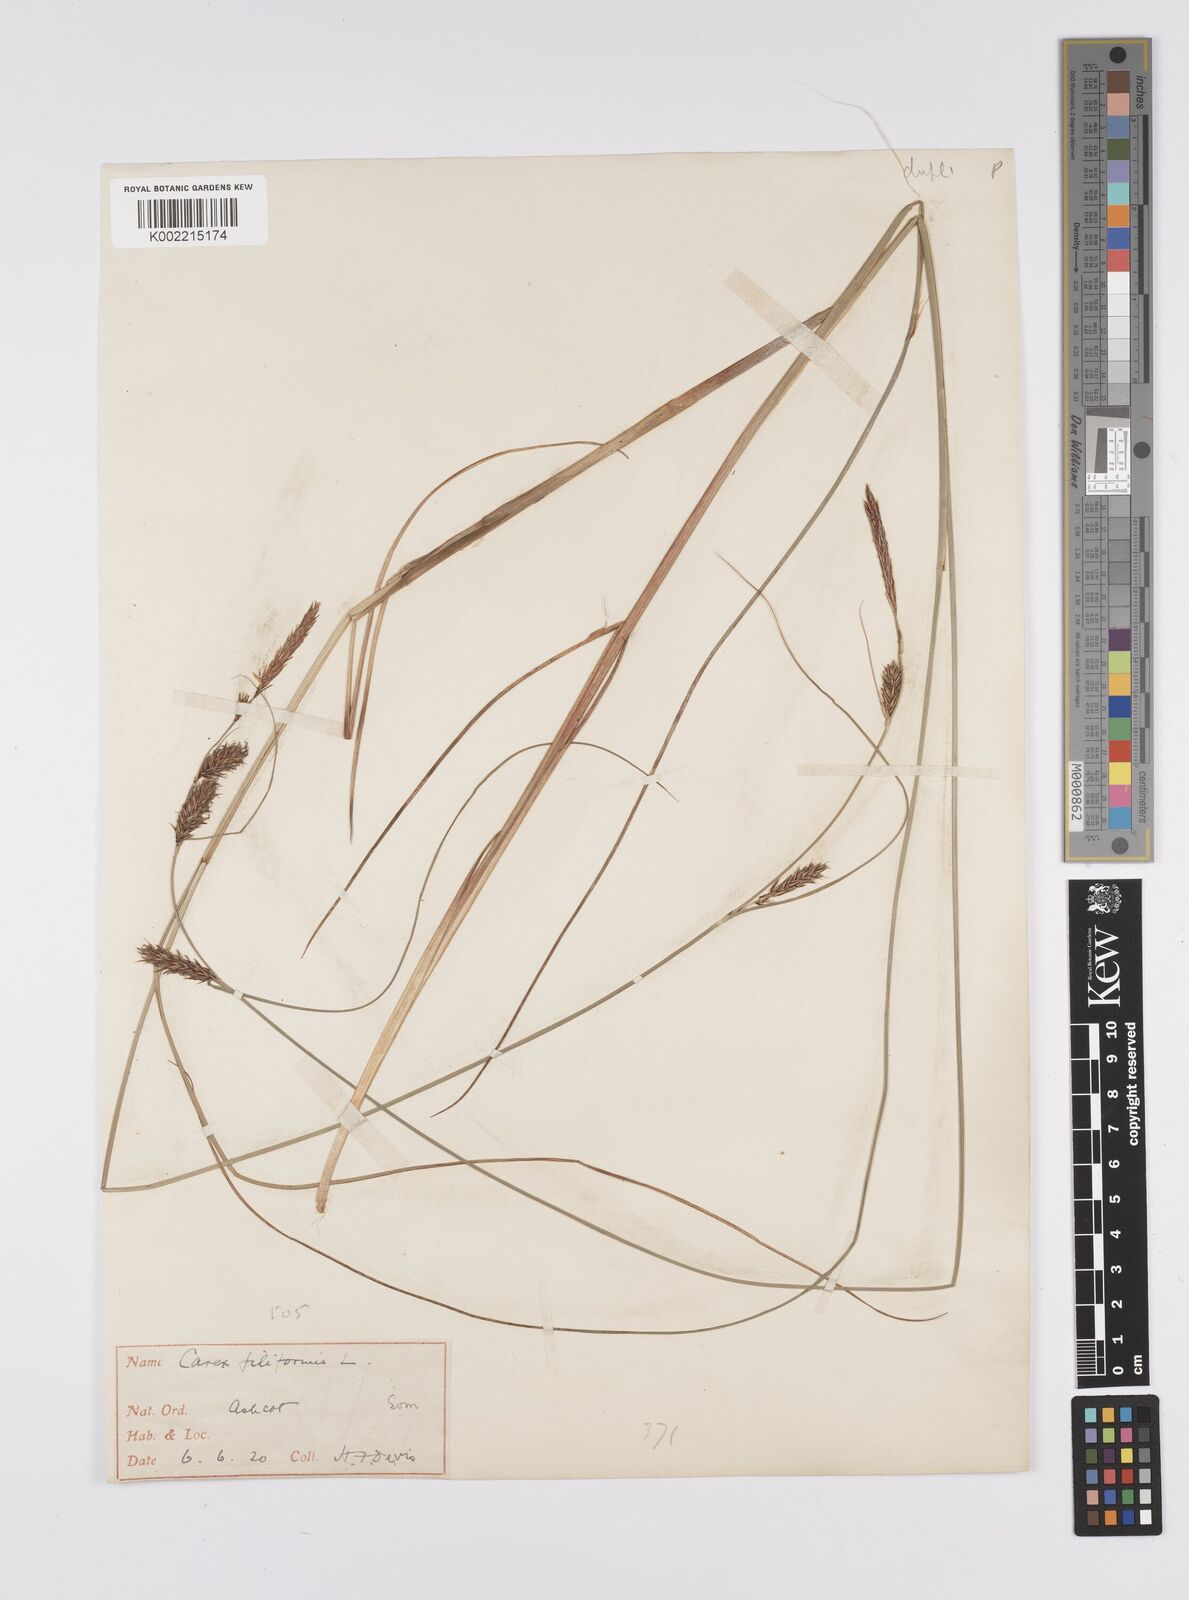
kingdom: Plantae
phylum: Tracheophyta
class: Liliopsida
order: Poales
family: Cyperaceae
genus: Carex
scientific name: Carex lasiocarpa
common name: Slender sedge
